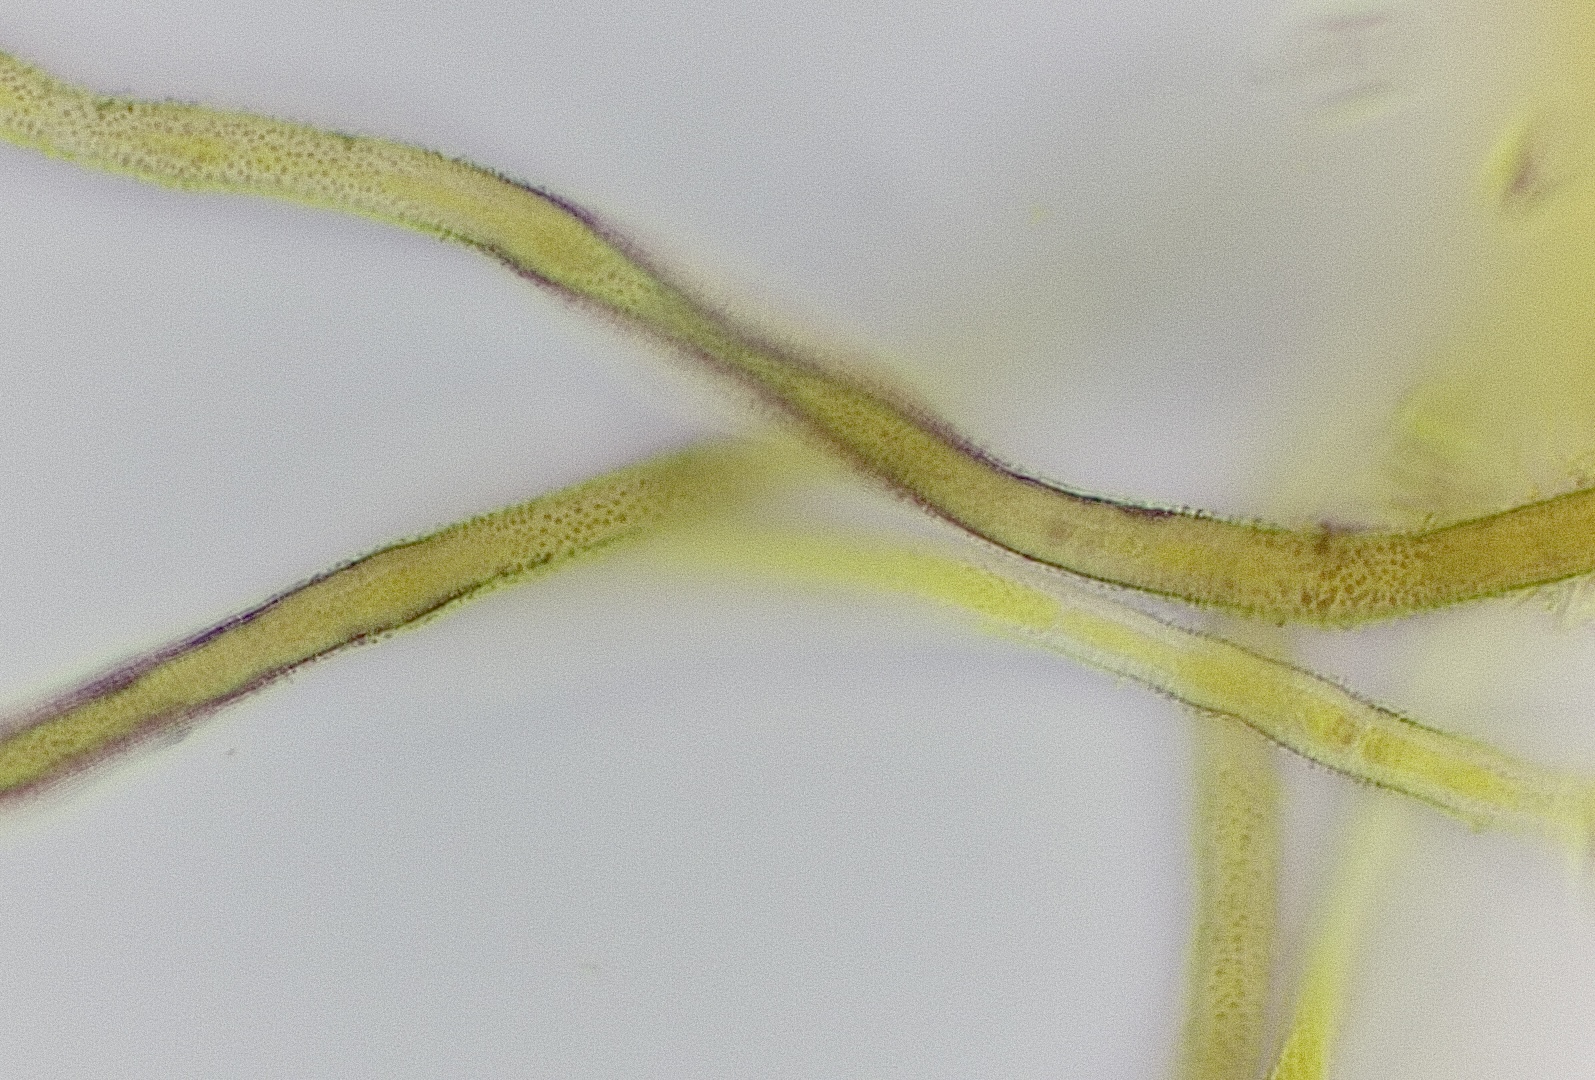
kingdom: Fungi
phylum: Ascomycota
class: Sordariomycetes
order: Hypocreales
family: Nectriaceae
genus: Sarcopodium
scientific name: Sarcopodium circinatum
